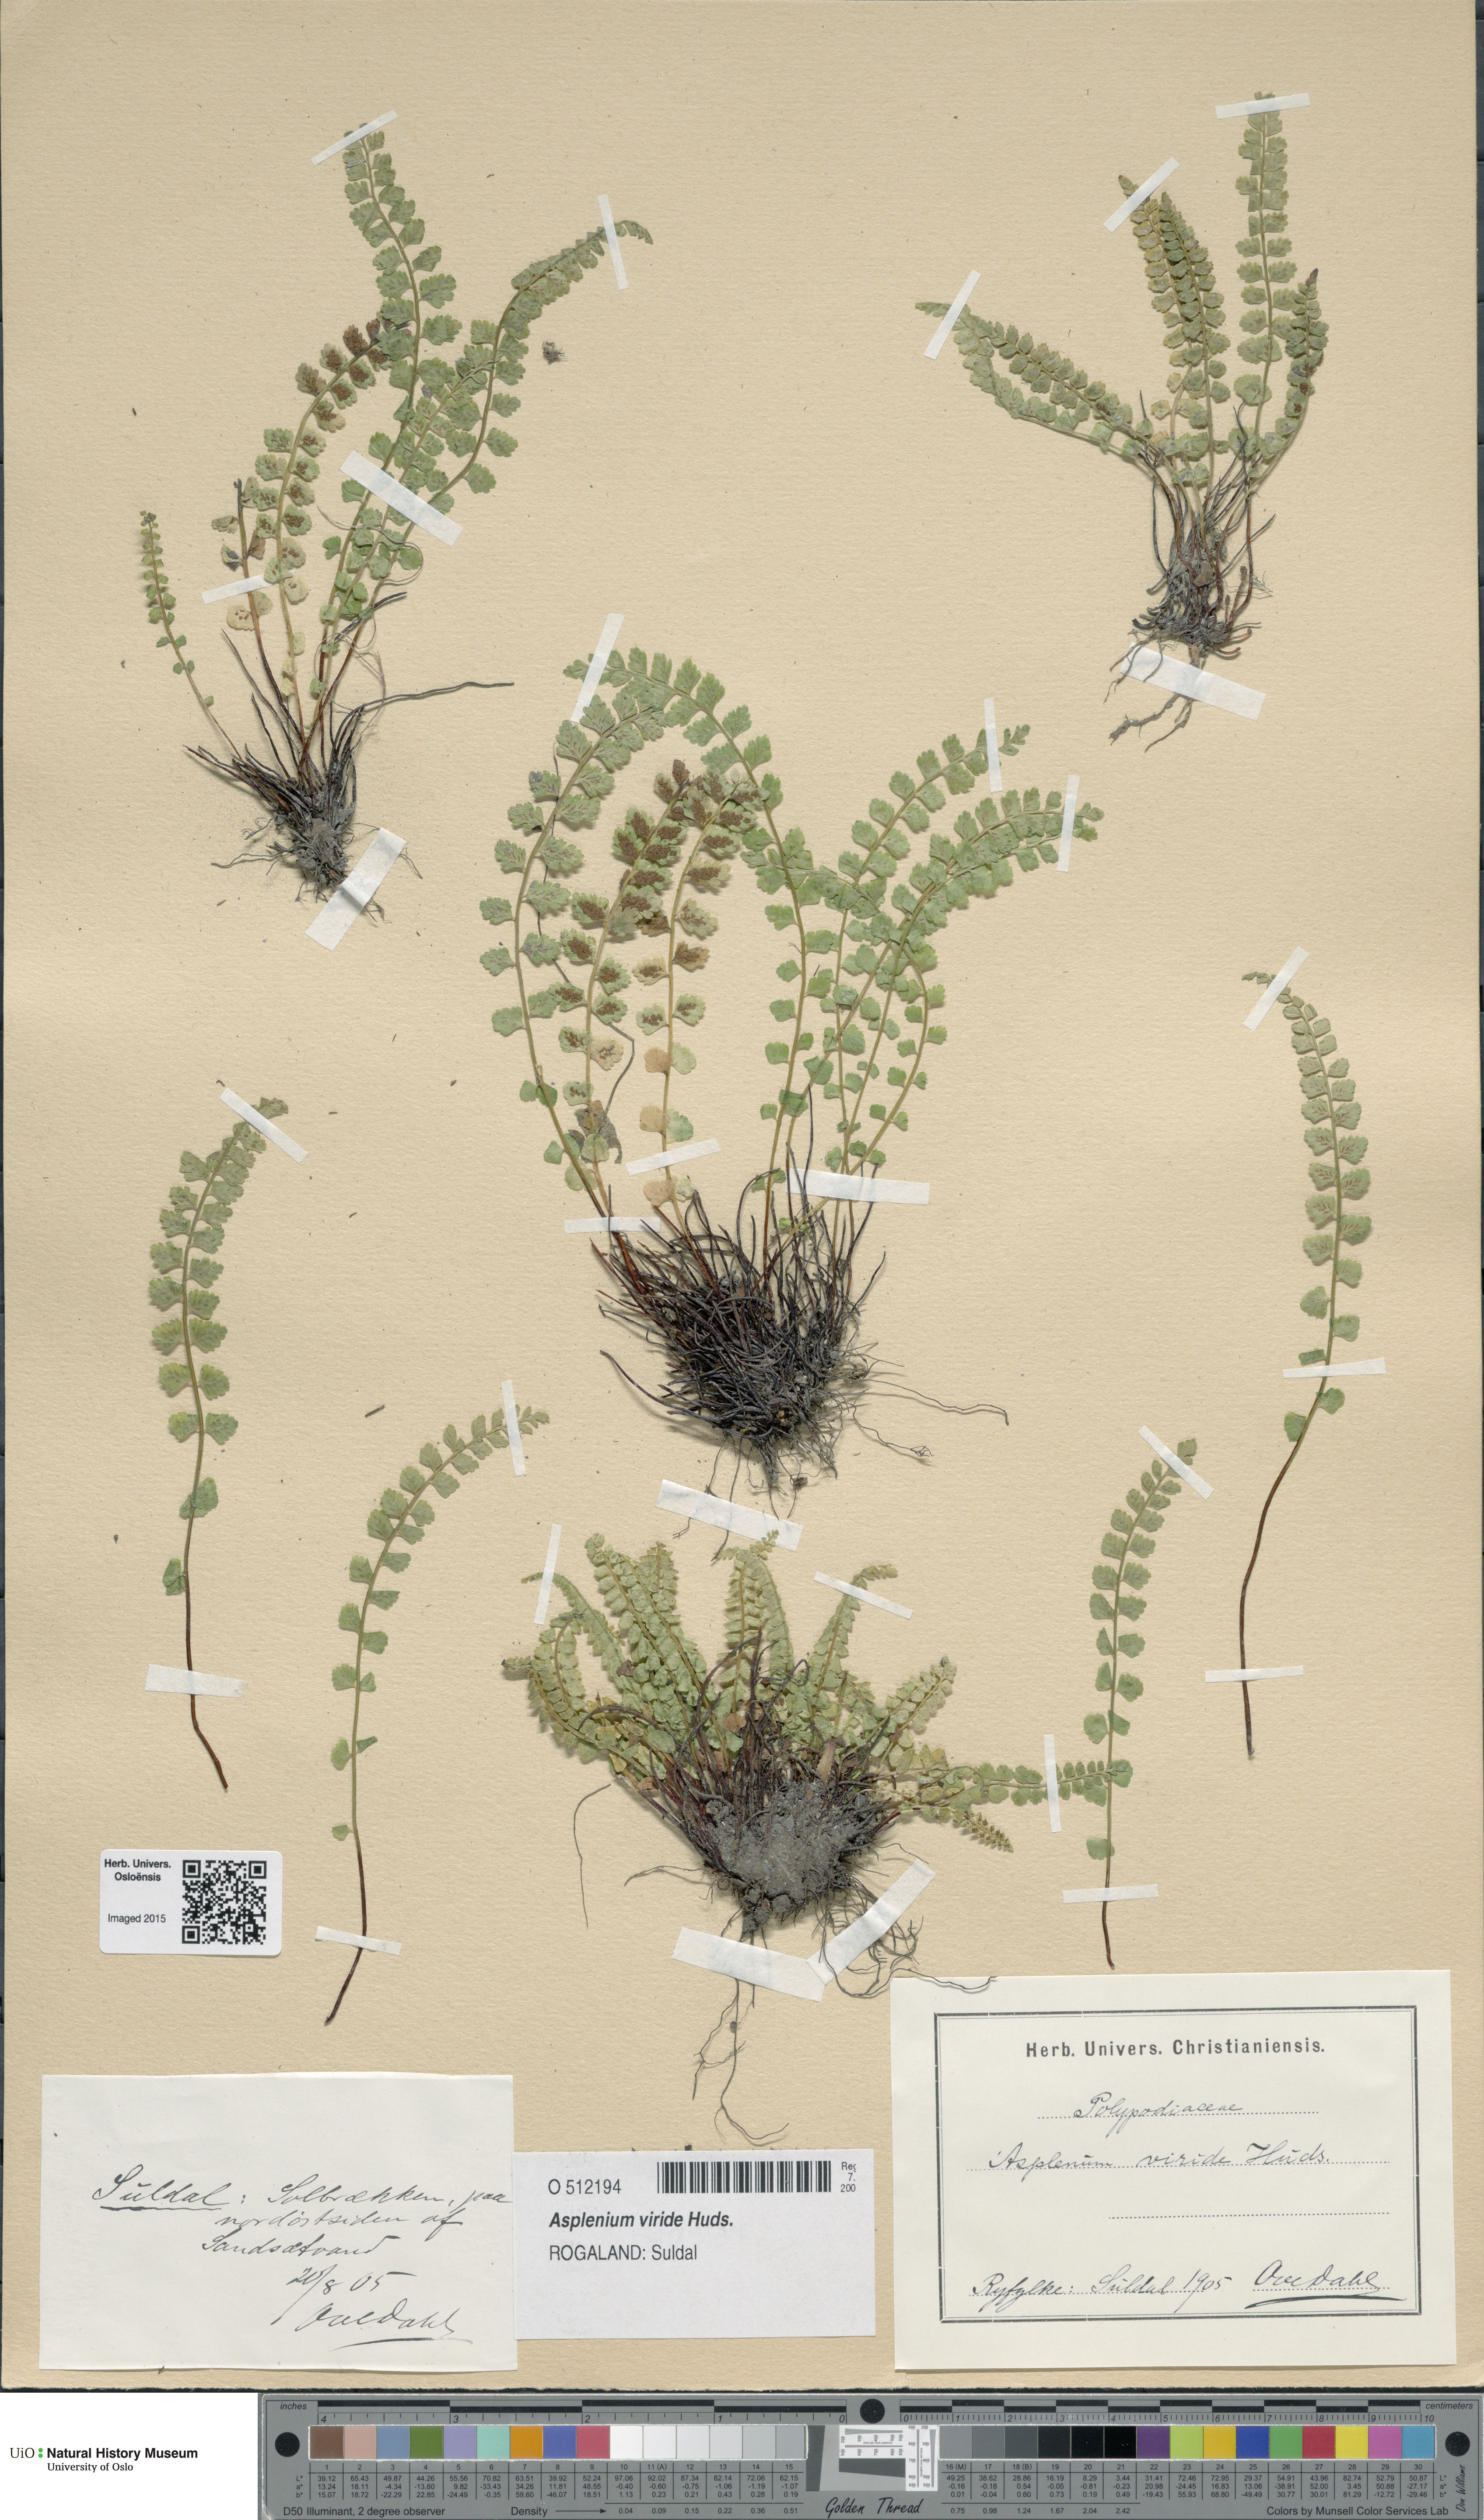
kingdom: Plantae
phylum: Tracheophyta
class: Polypodiopsida
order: Polypodiales
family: Aspleniaceae
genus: Asplenium
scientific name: Asplenium viride
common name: Green spleenwort
